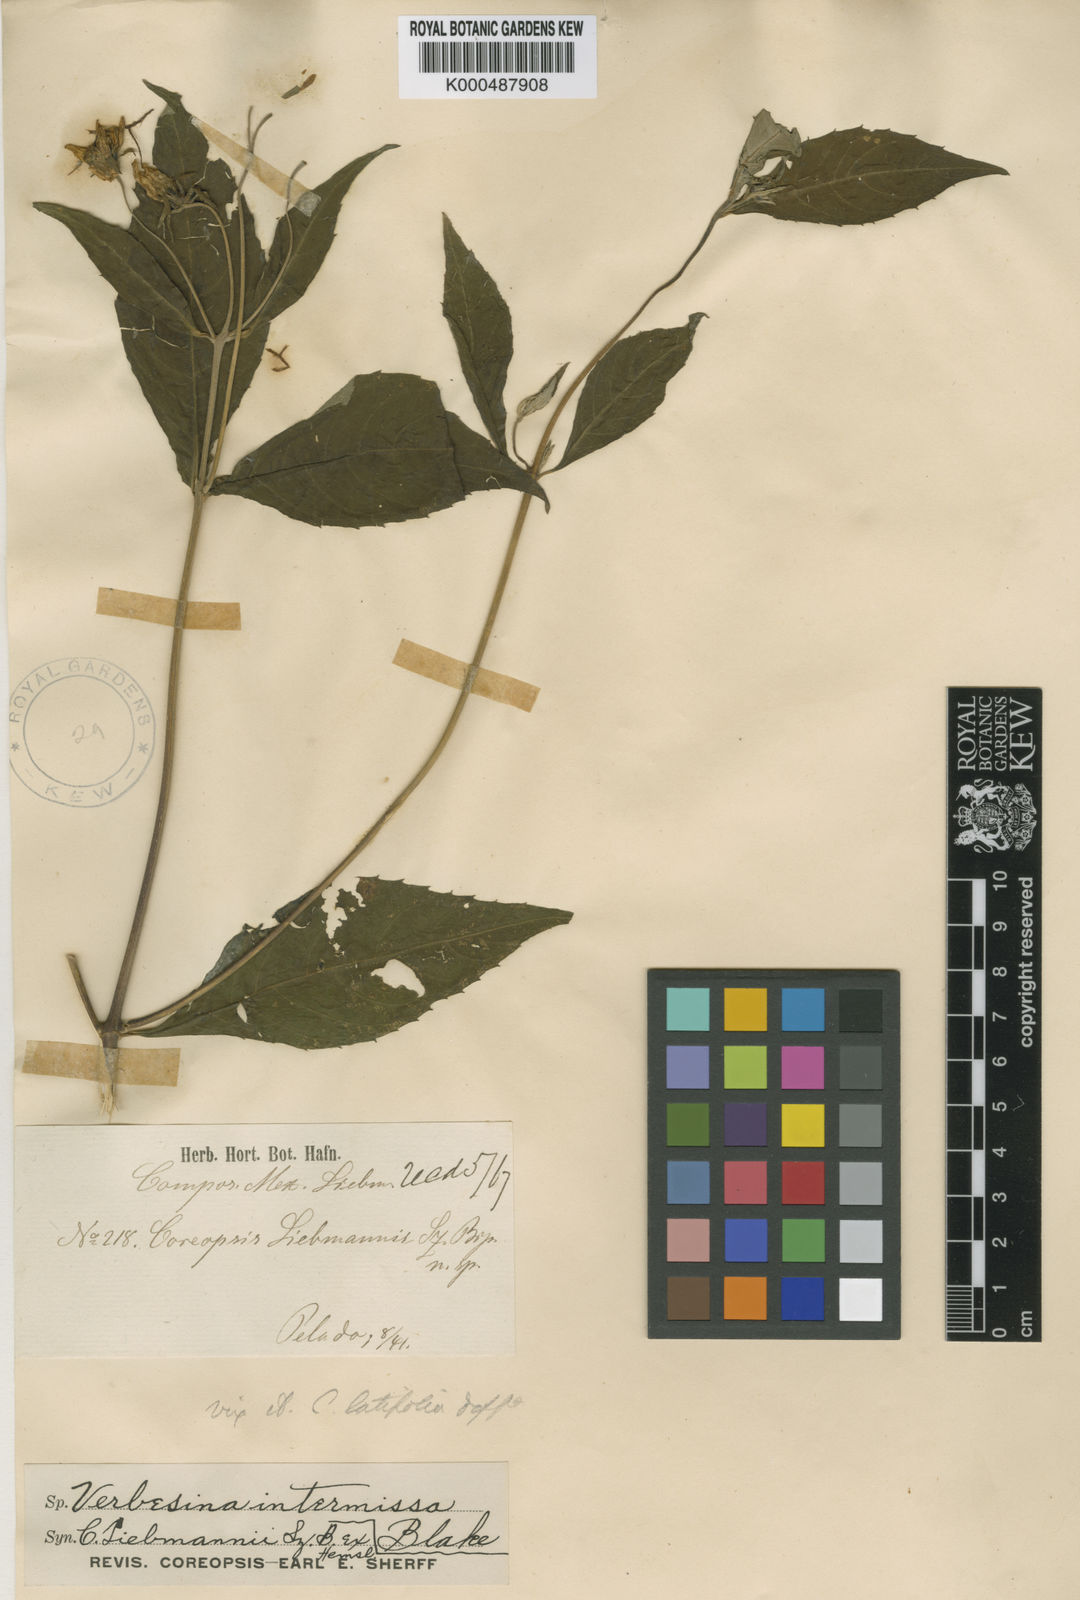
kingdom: Plantae
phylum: Tracheophyta
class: Magnoliopsida
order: Asterales
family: Asteraceae
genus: Verbesina
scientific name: Verbesina intermissa
